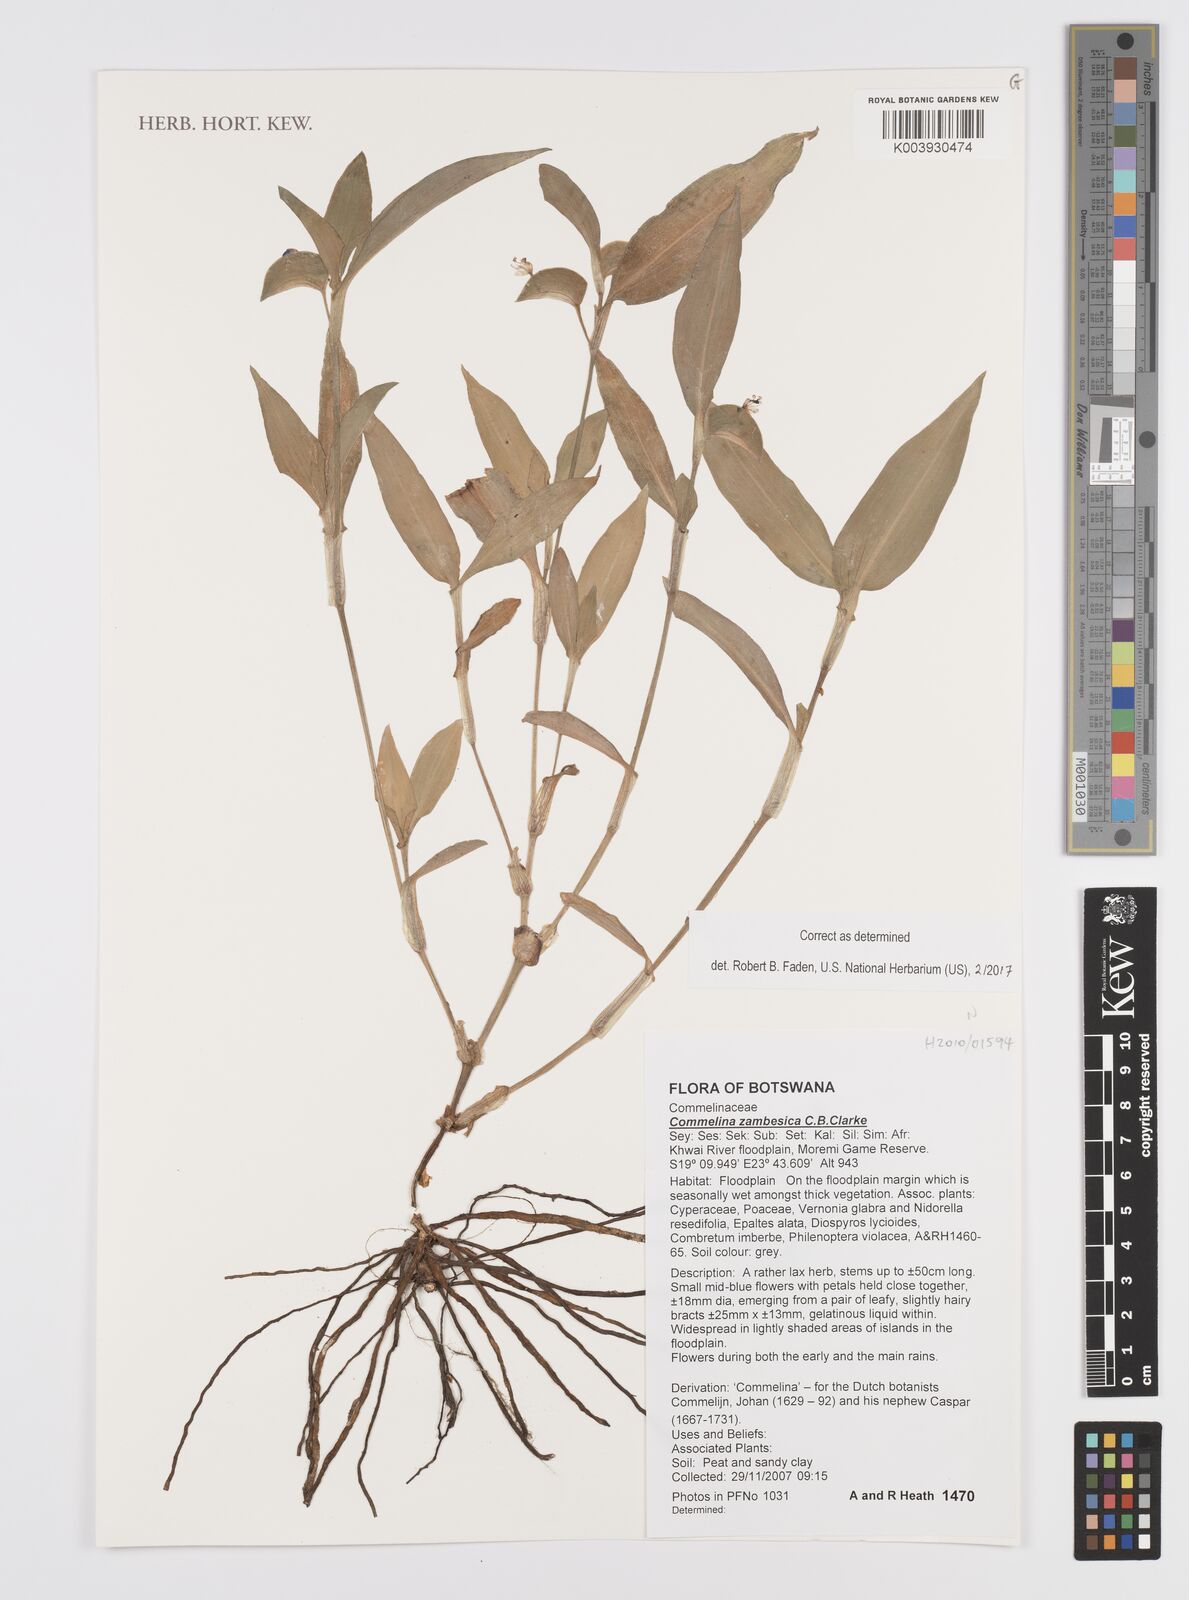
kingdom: Plantae
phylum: Tracheophyta
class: Liliopsida
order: Commelinales
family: Commelinaceae
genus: Commelina
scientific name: Commelina zambesica
